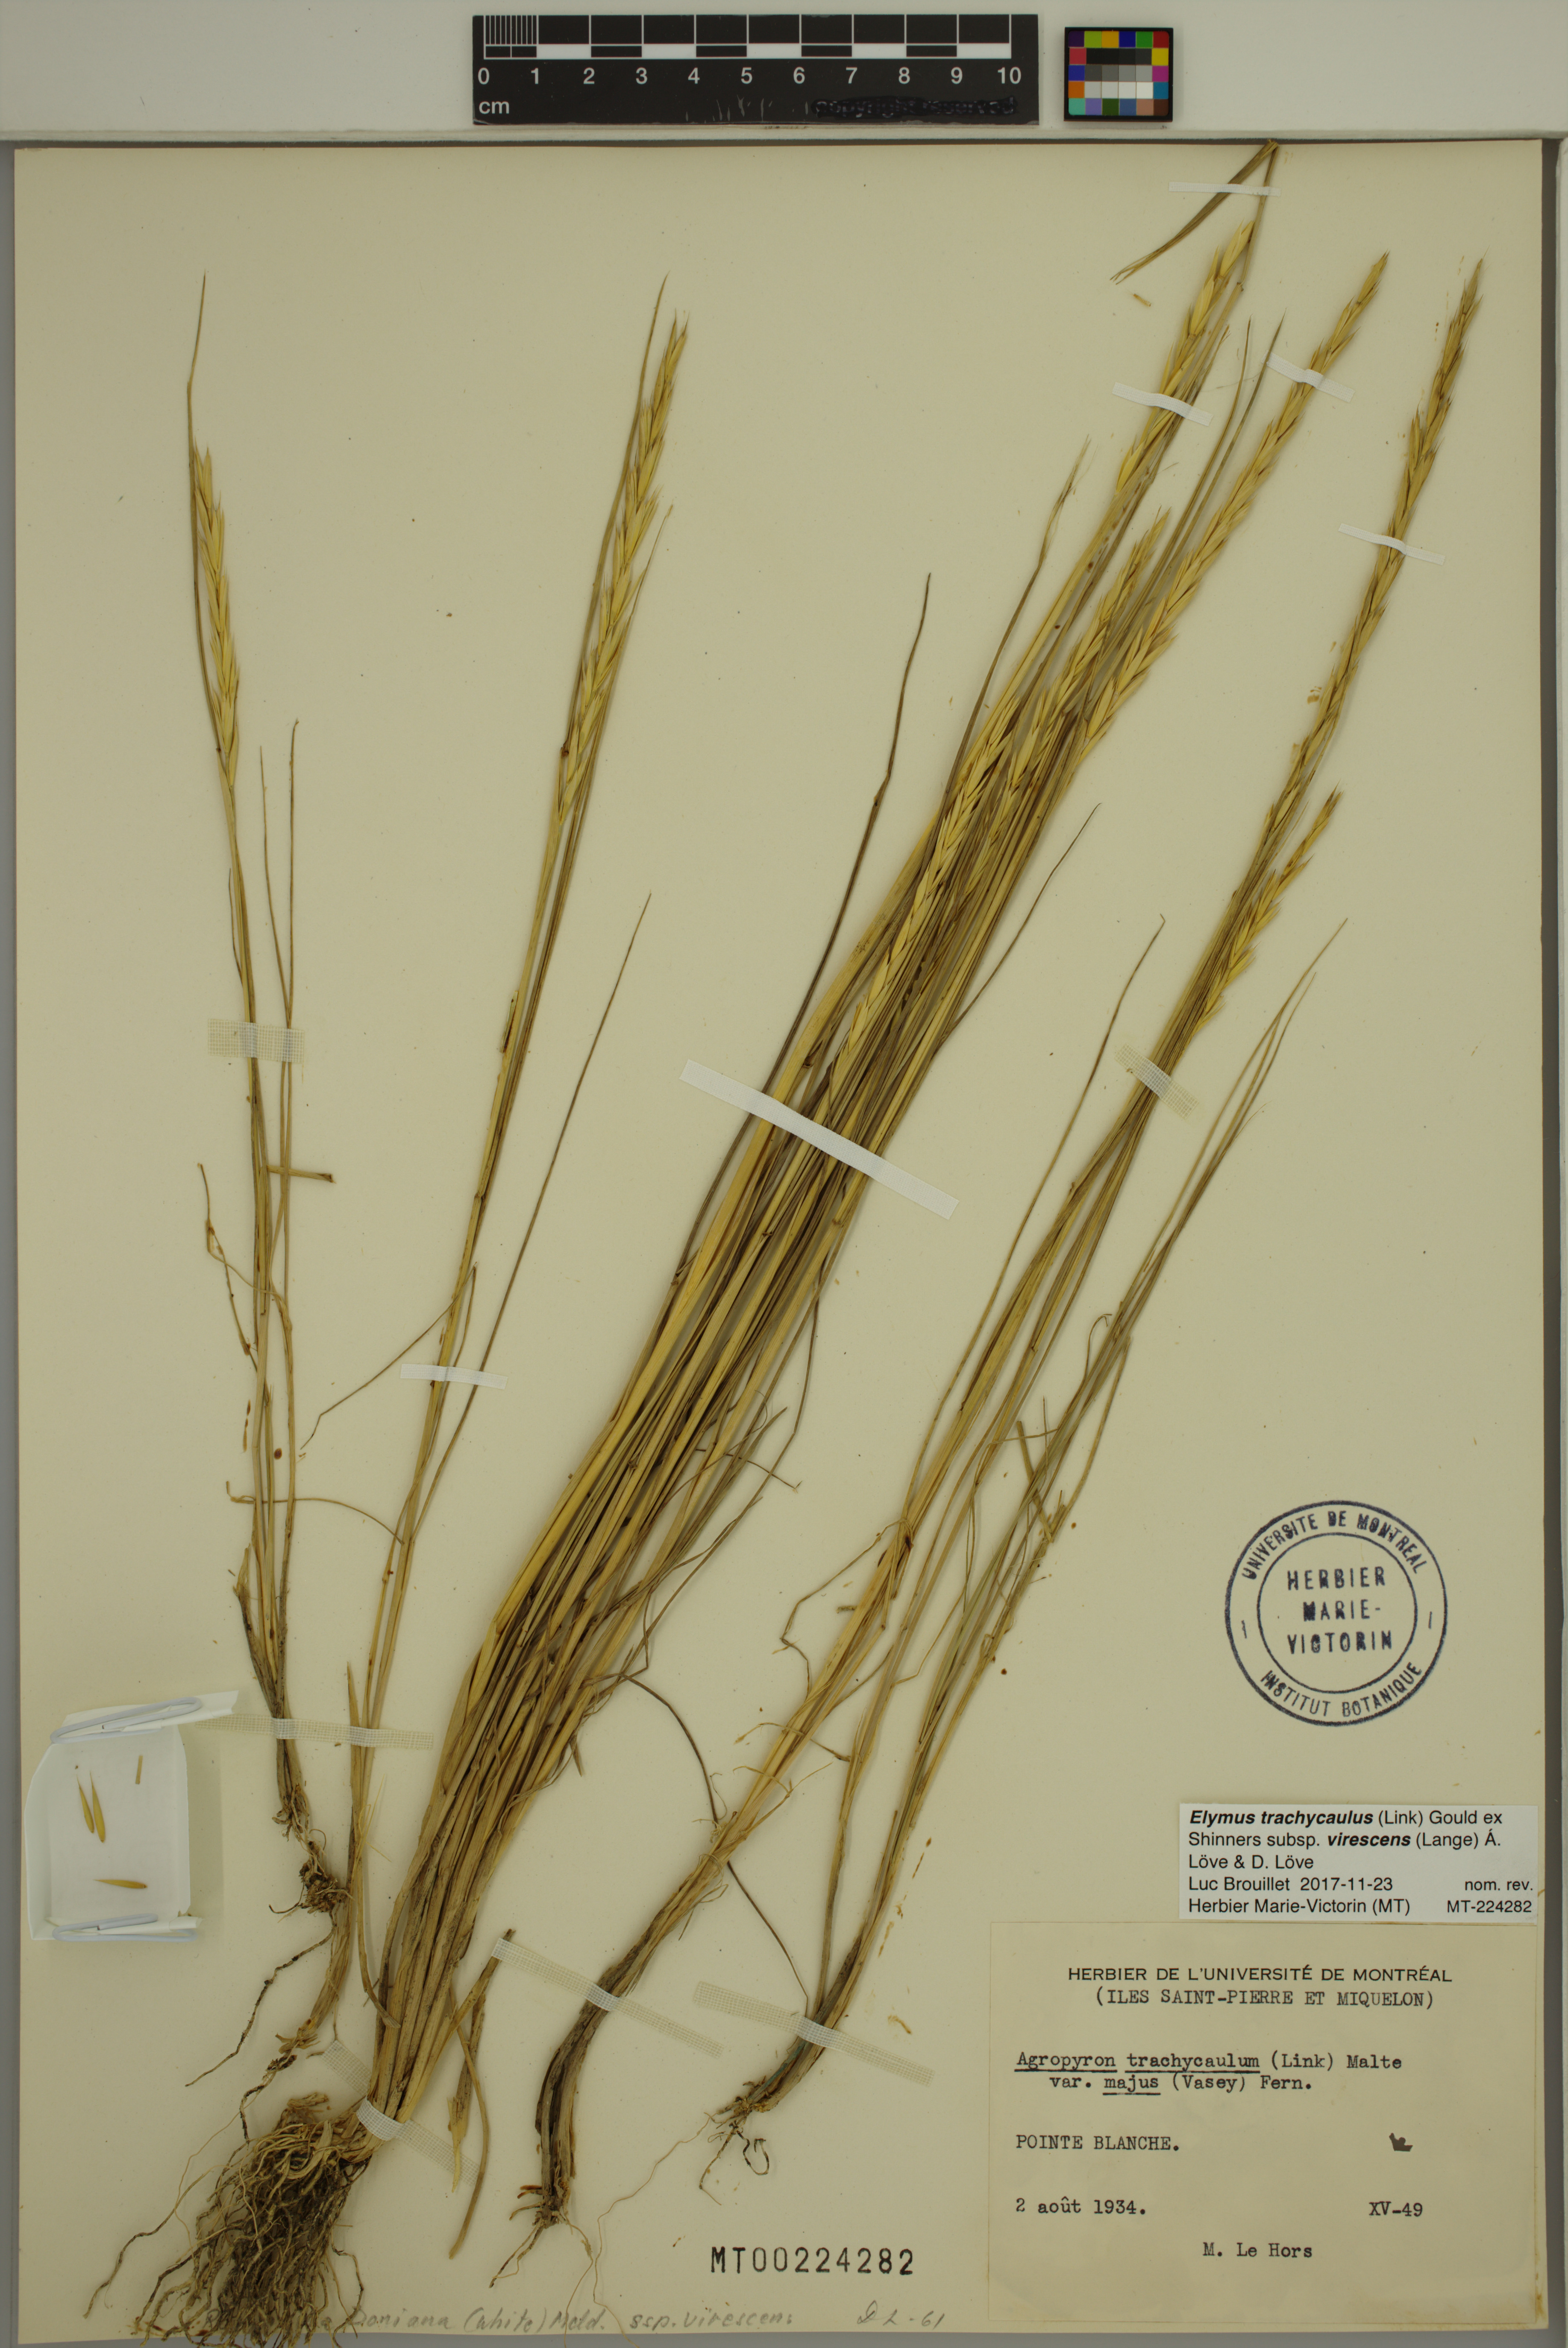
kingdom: Plantae
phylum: Tracheophyta
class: Liliopsida
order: Poales
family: Poaceae
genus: Elymus
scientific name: Elymus violaceus
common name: Arctic wheatgrass
